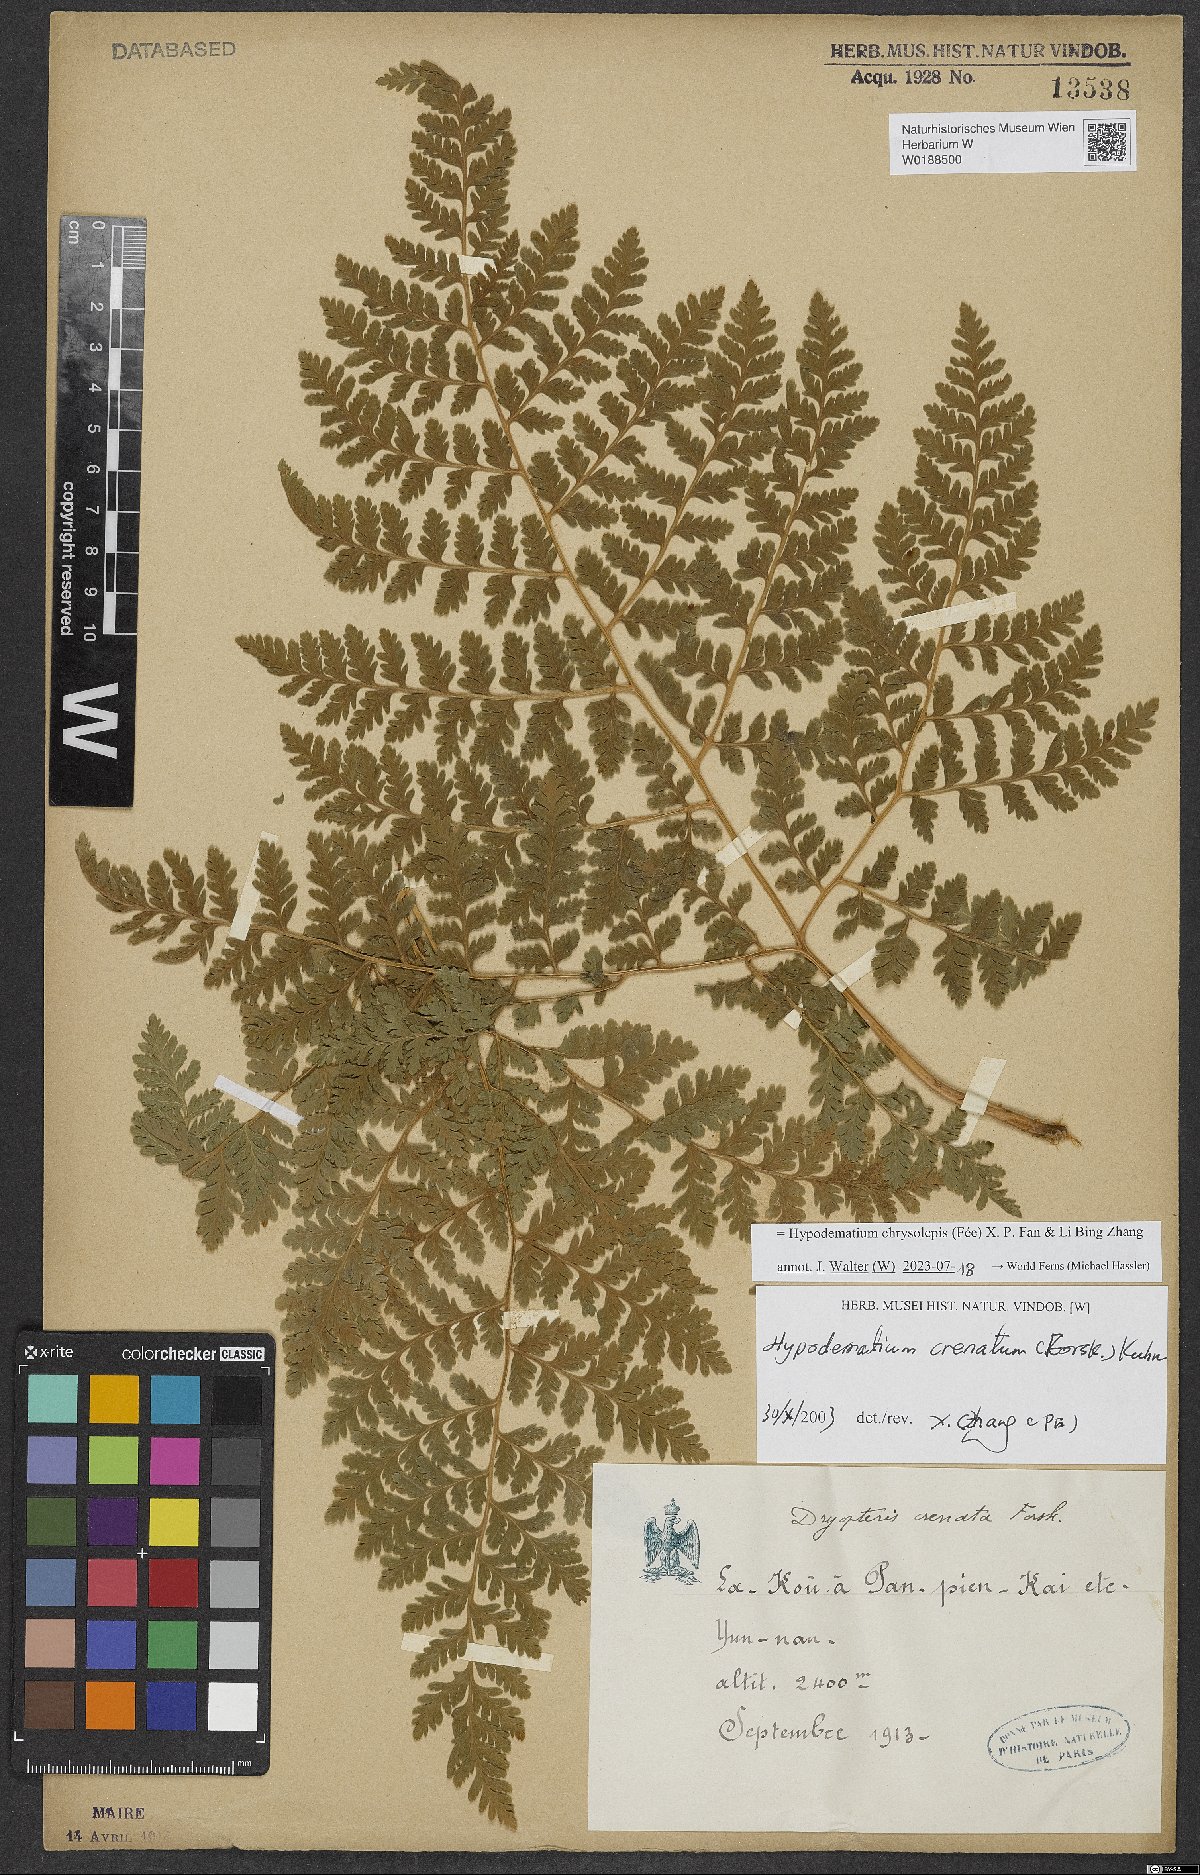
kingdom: Plantae
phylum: Tracheophyta
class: Polypodiopsida
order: Polypodiales
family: Hypodematiaceae
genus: Hypodematium
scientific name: Hypodematium chrysolepis
